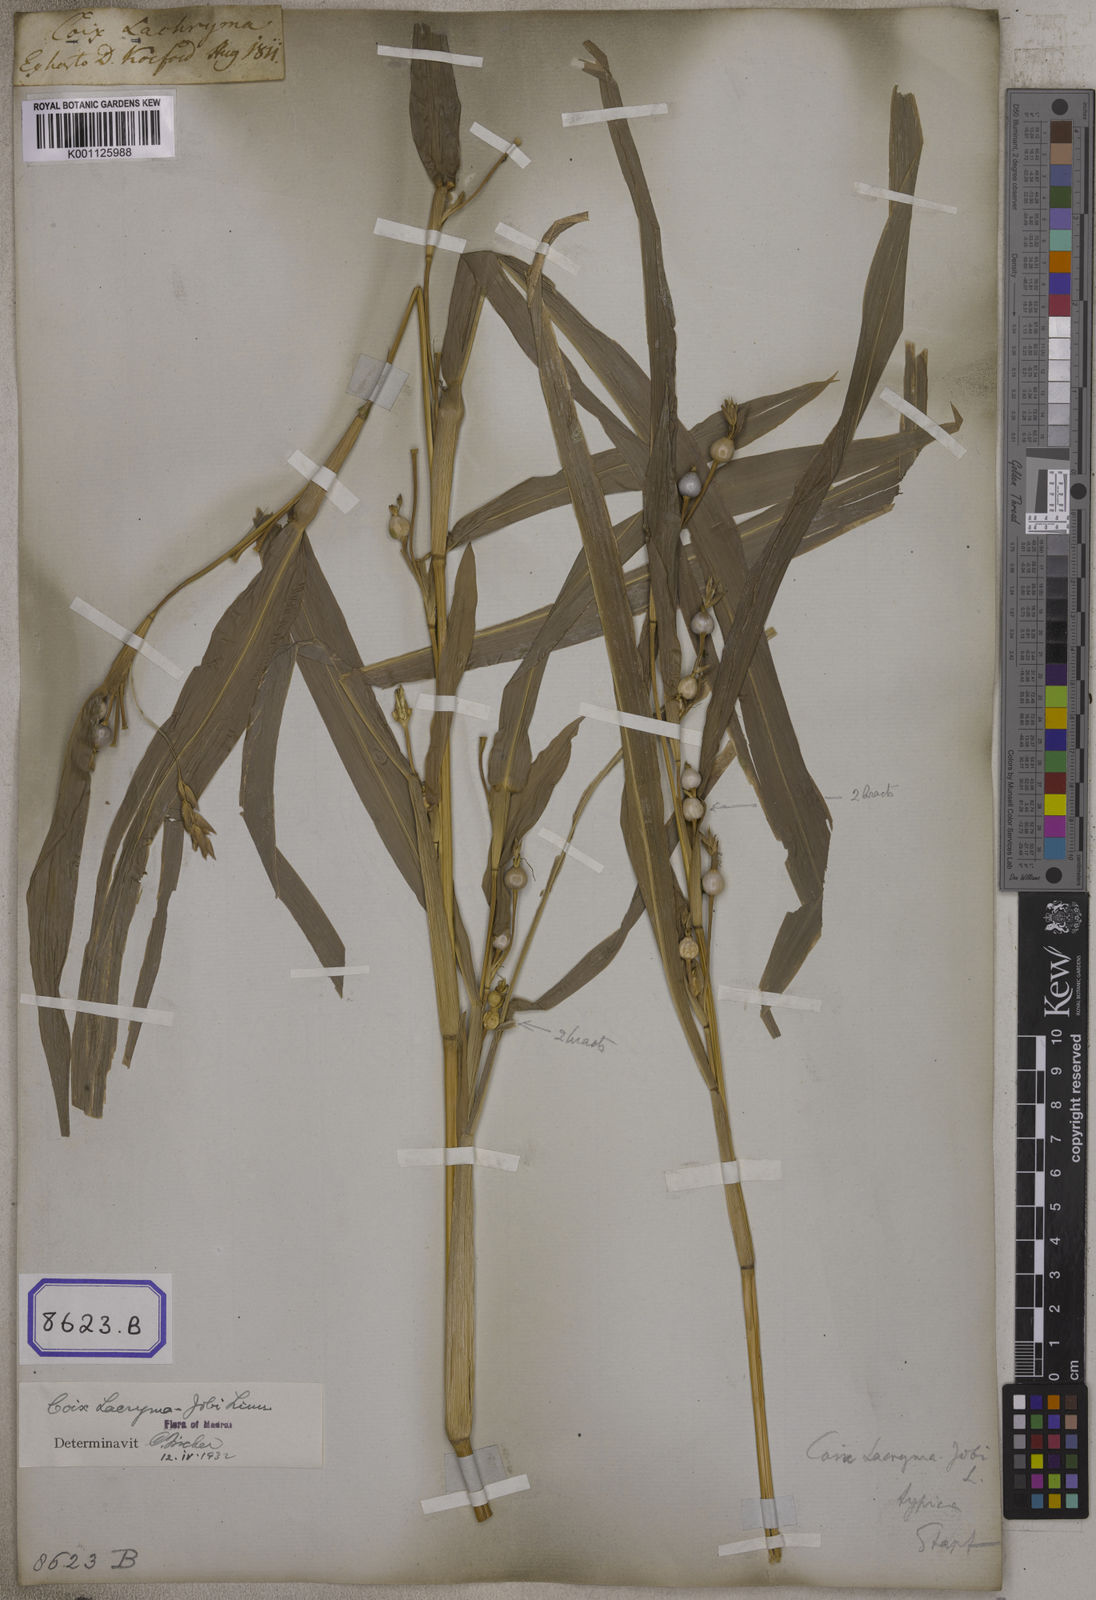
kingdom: Plantae
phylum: Tracheophyta
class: Liliopsida
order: Poales
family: Poaceae
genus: Coix
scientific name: Coix lacryma-jobi
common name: Job's tears
